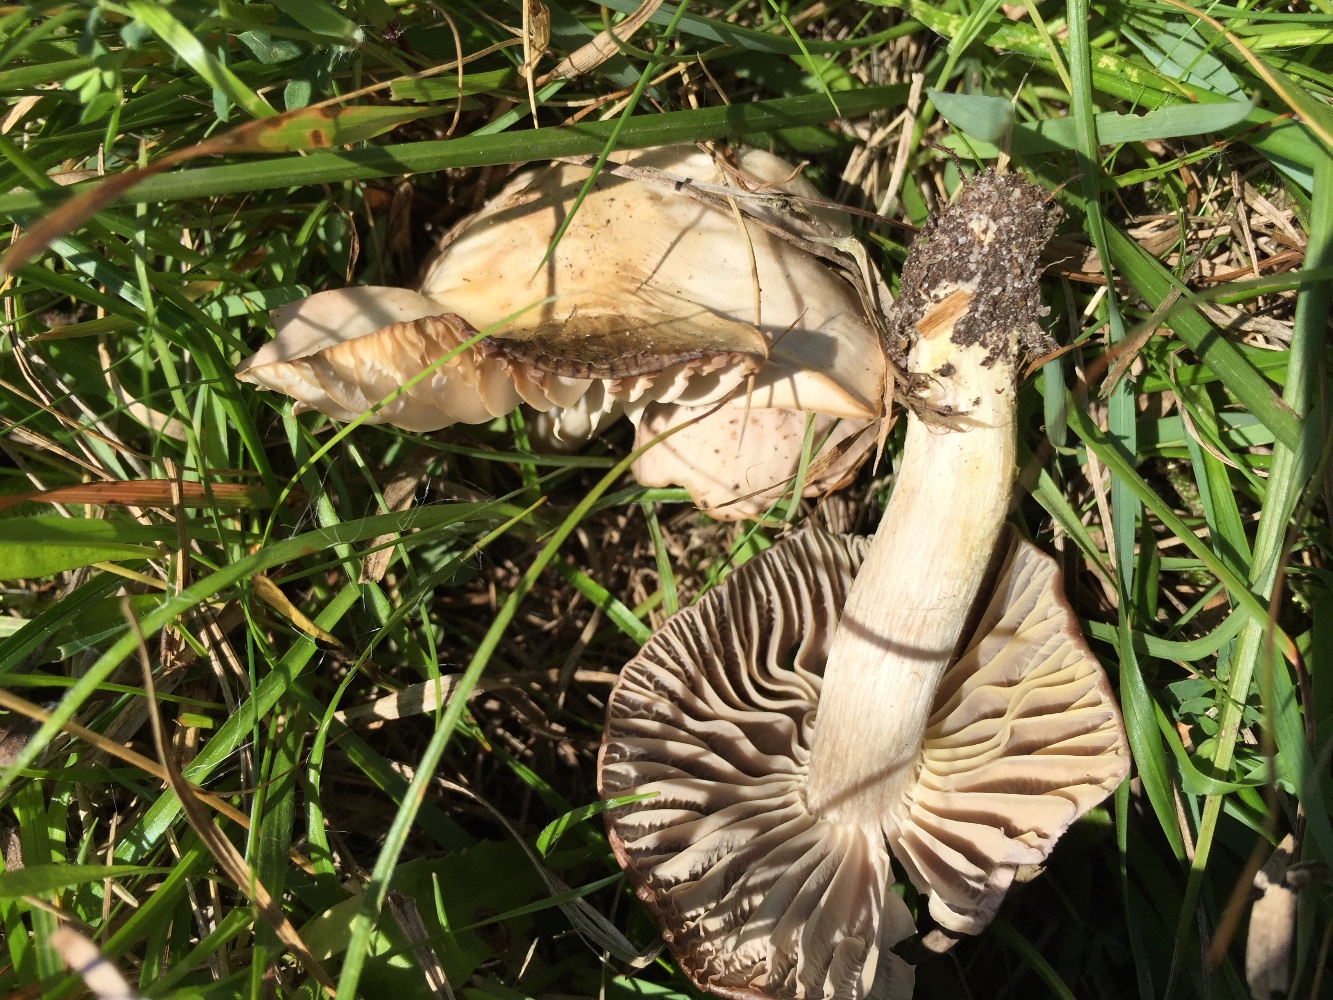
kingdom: Fungi
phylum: Basidiomycota
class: Agaricomycetes
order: Agaricales
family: Hygrophoraceae
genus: Cuphophyllus
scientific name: Cuphophyllus flavipes
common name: gulfodet vokshat
